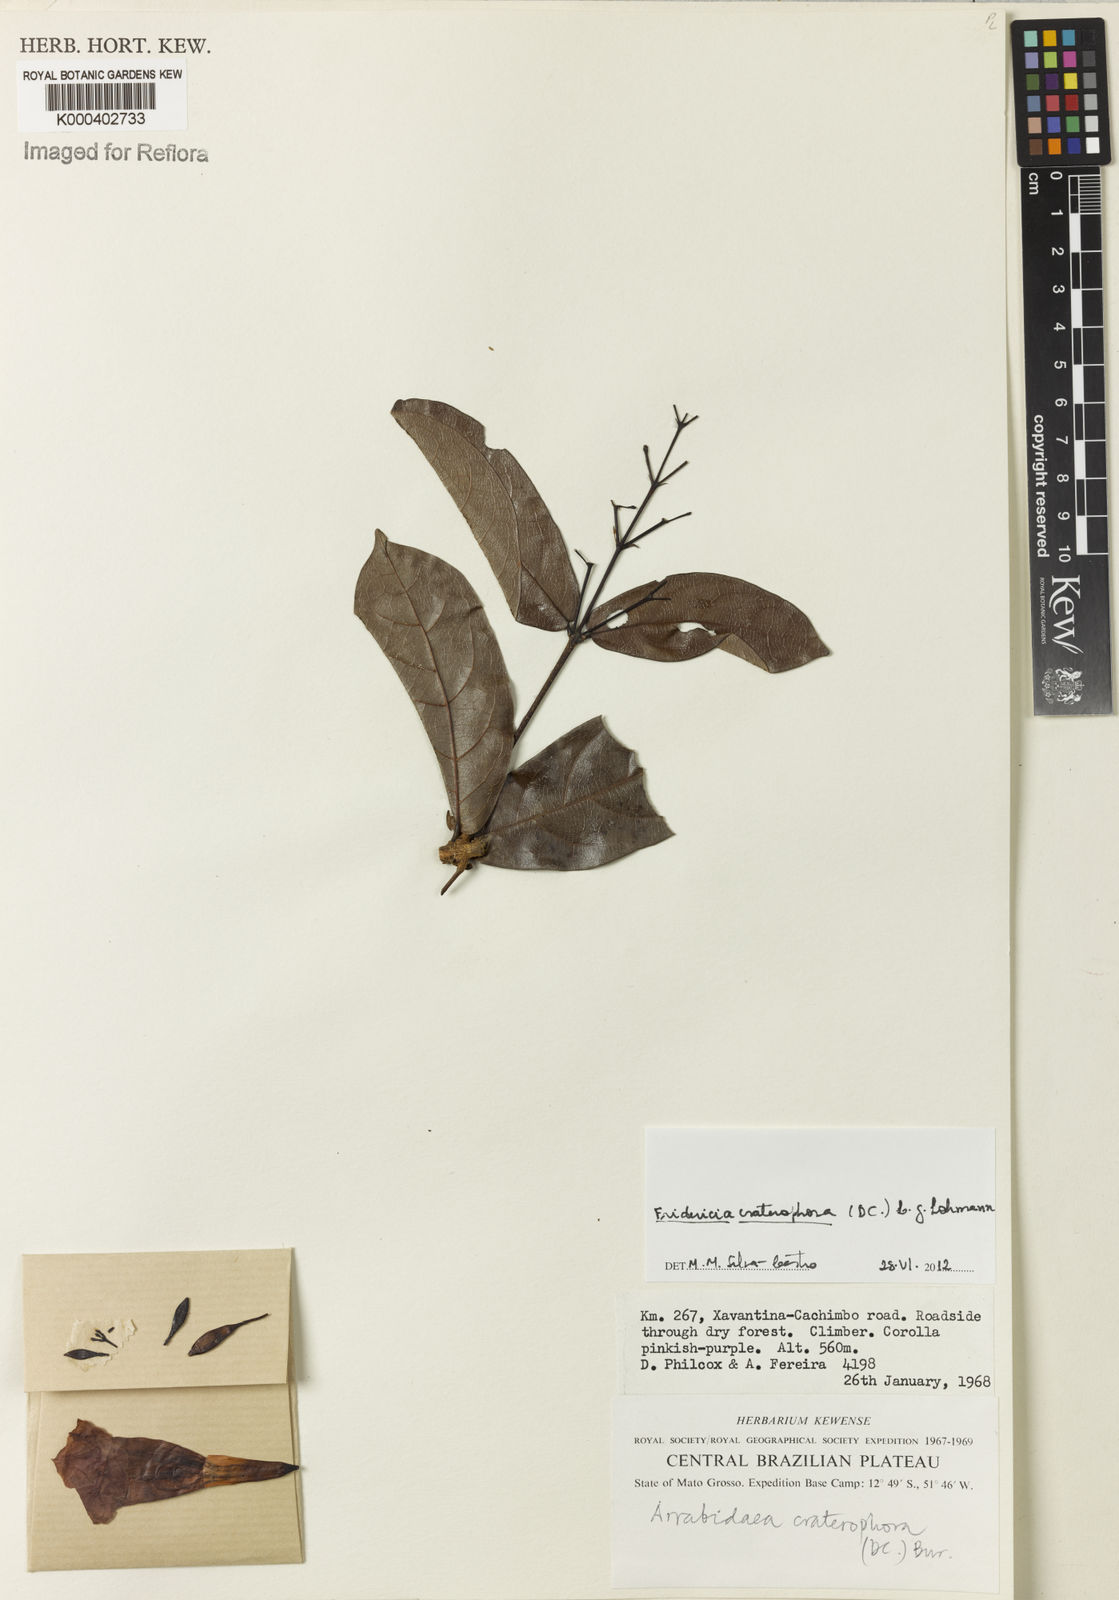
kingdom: Plantae
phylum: Tracheophyta
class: Magnoliopsida
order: Lamiales
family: Bignoniaceae
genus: Fridericia
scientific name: Fridericia craterophora
